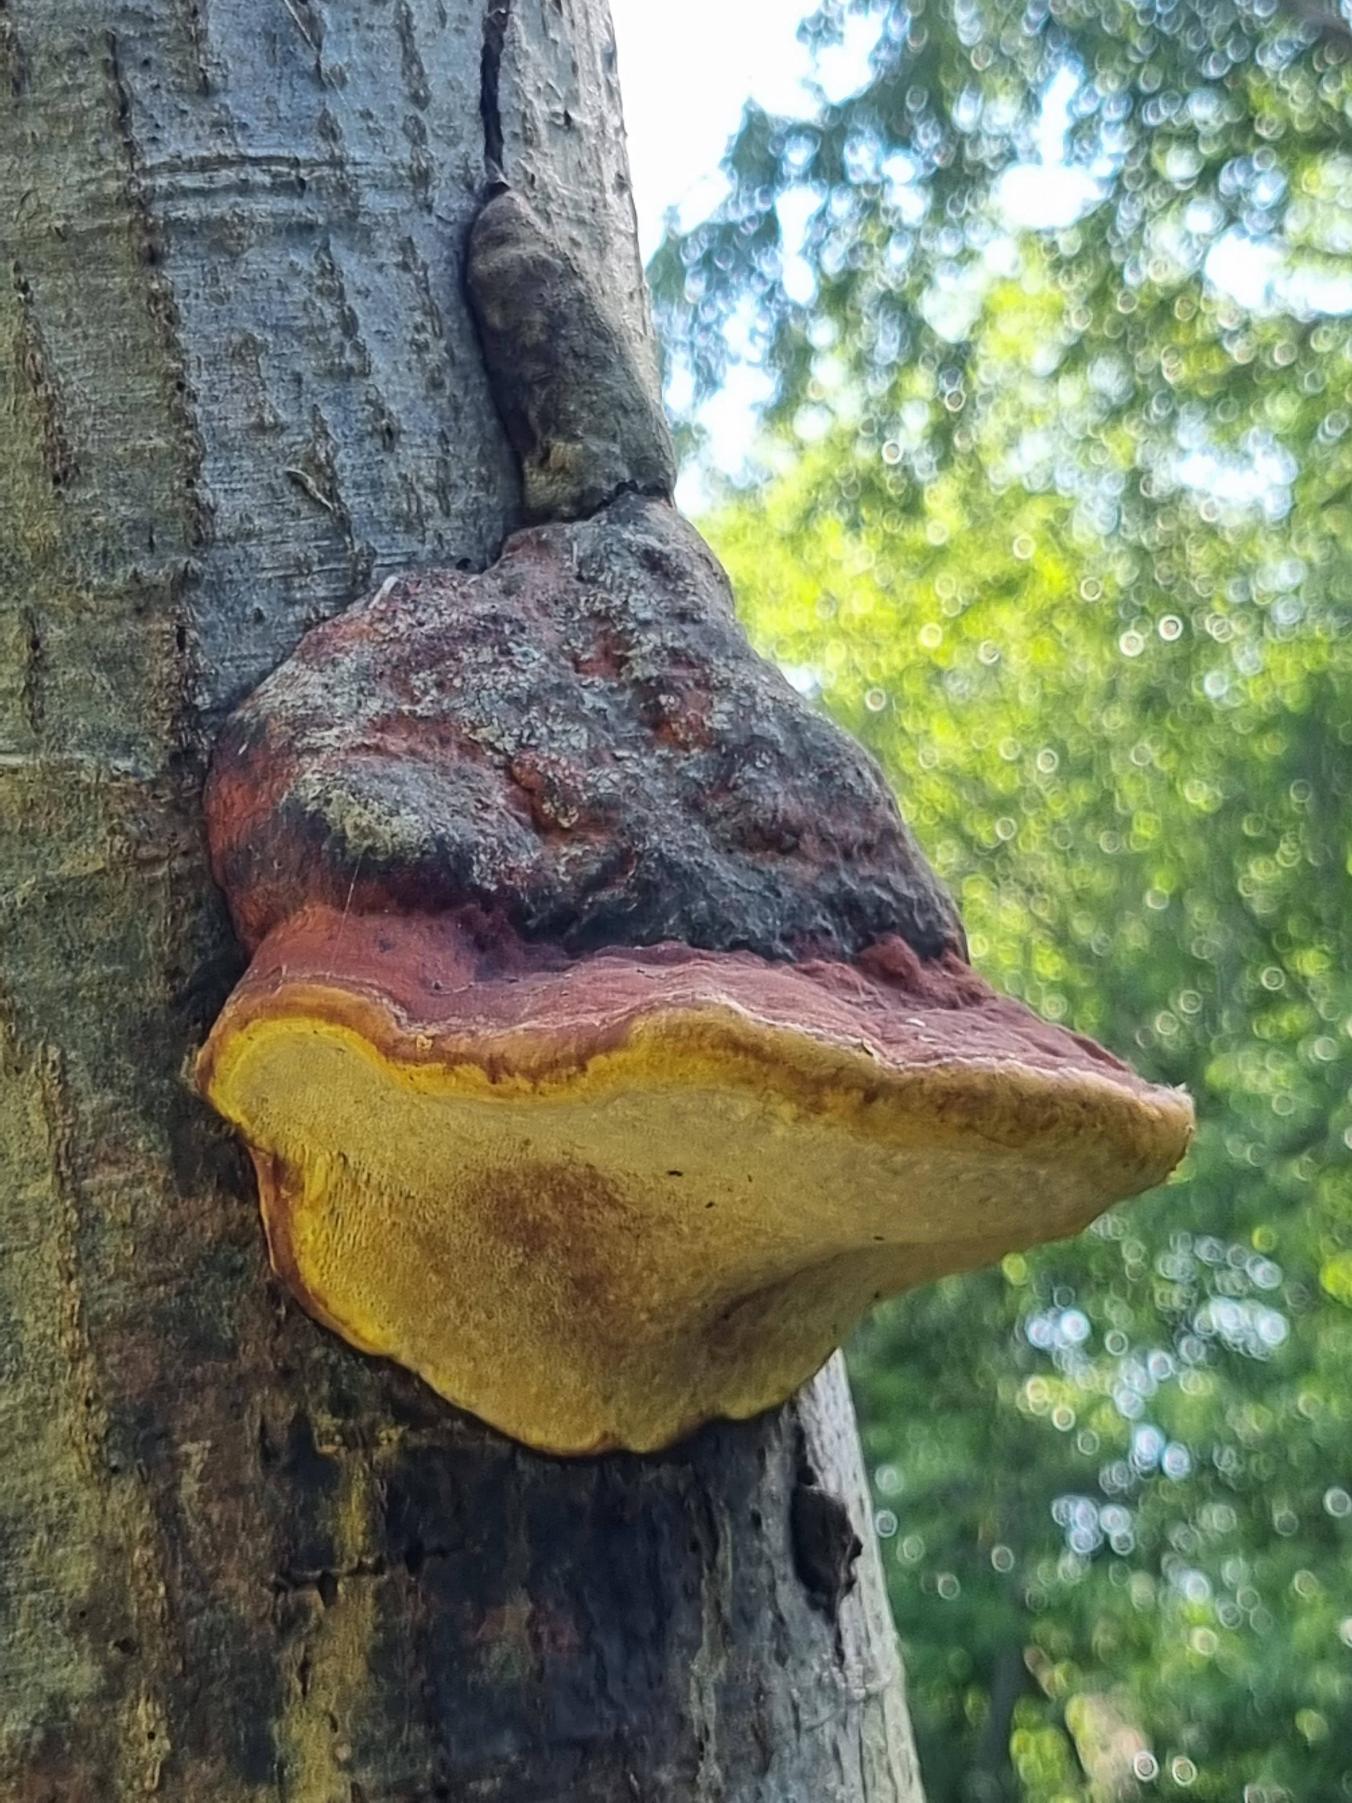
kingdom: Fungi
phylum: Basidiomycota
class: Agaricomycetes
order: Polyporales
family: Fomitopsidaceae
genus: Fomitopsis
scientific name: Fomitopsis pinicola
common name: Randbæltet hovporesvamp
